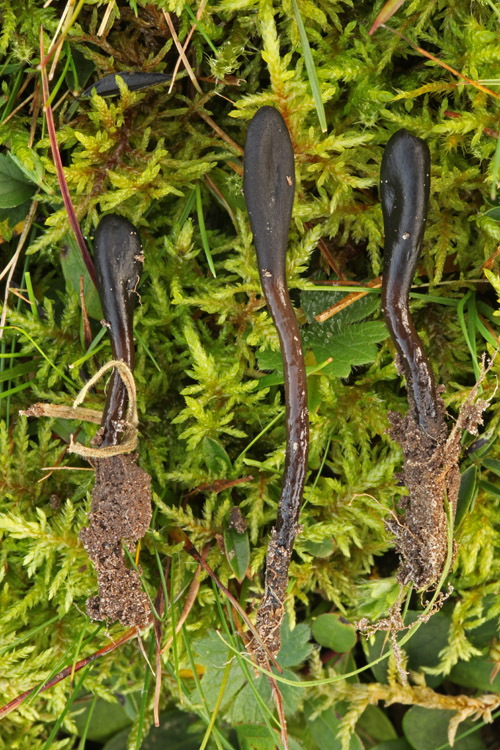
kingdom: Fungi
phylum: Ascomycota
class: Geoglossomycetes
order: Geoglossales
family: Geoglossaceae
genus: Glutinoglossum
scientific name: Glutinoglossum glutinosum
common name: slimet jordtunge
